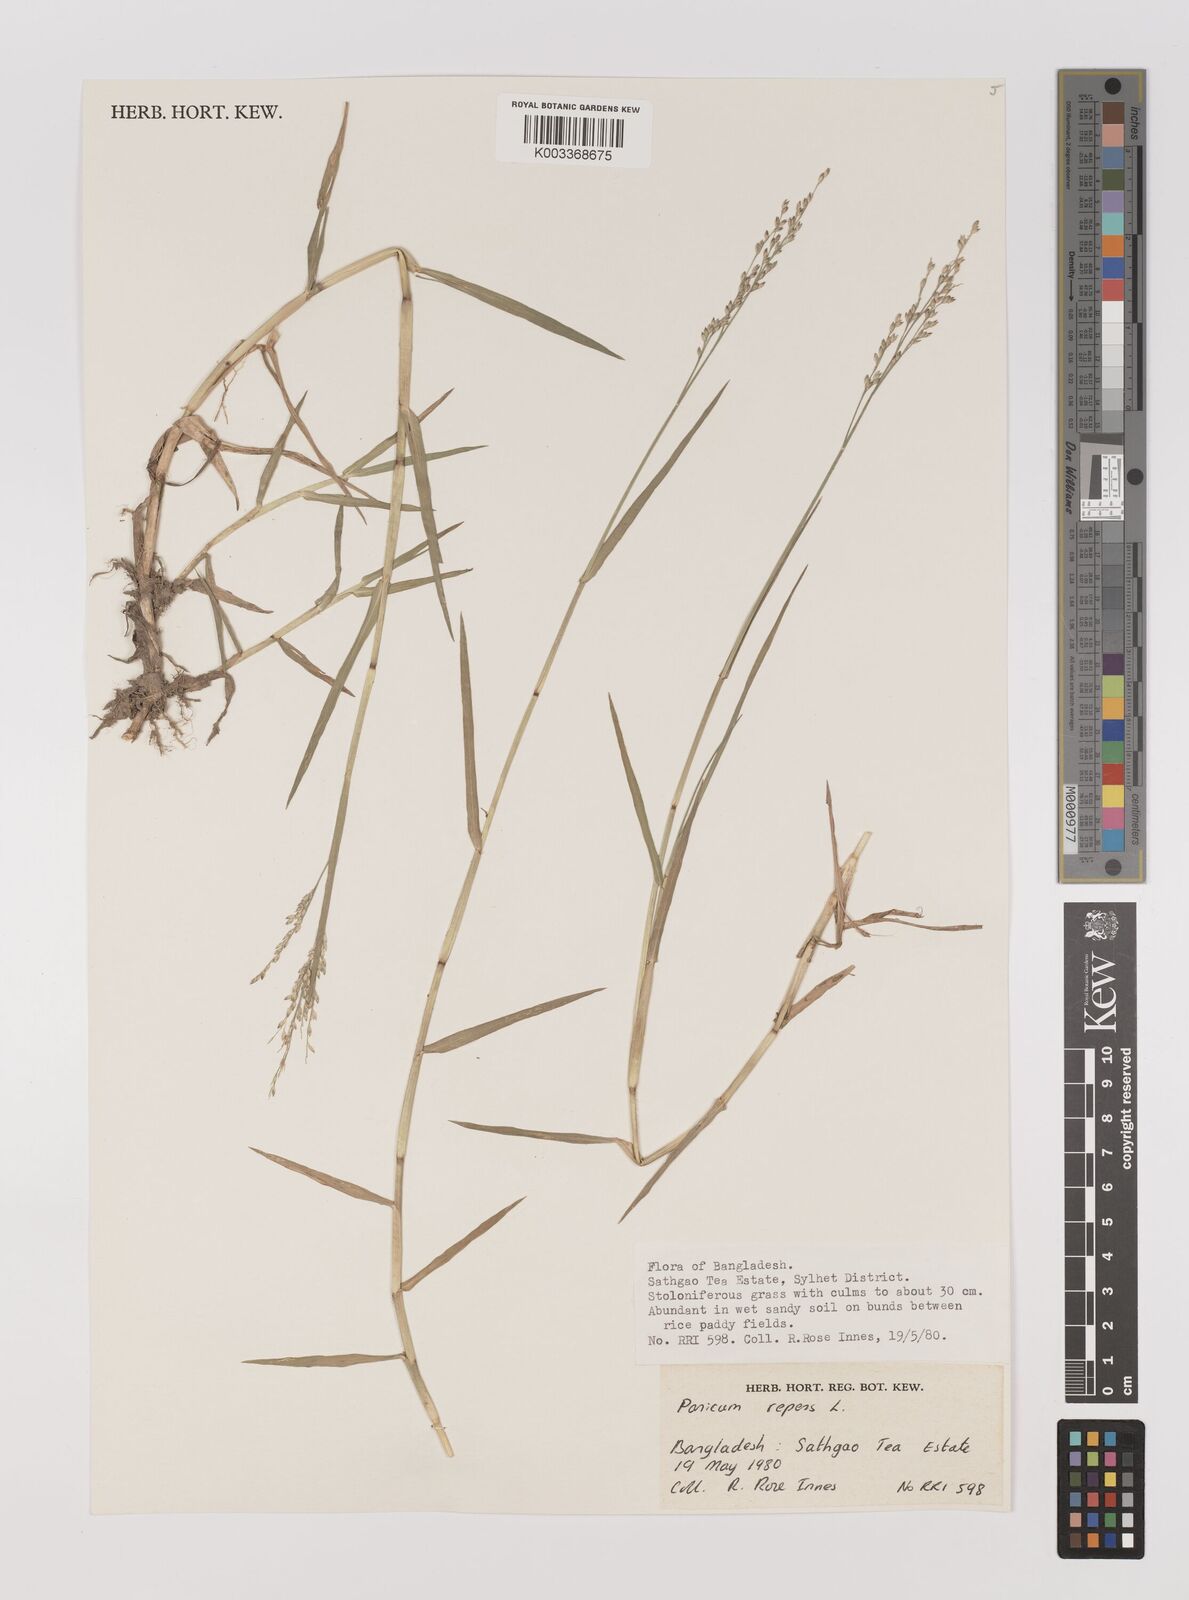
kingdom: Plantae
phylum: Tracheophyta
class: Liliopsida
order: Poales
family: Poaceae
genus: Panicum
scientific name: Panicum repens
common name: Torpedo grass
